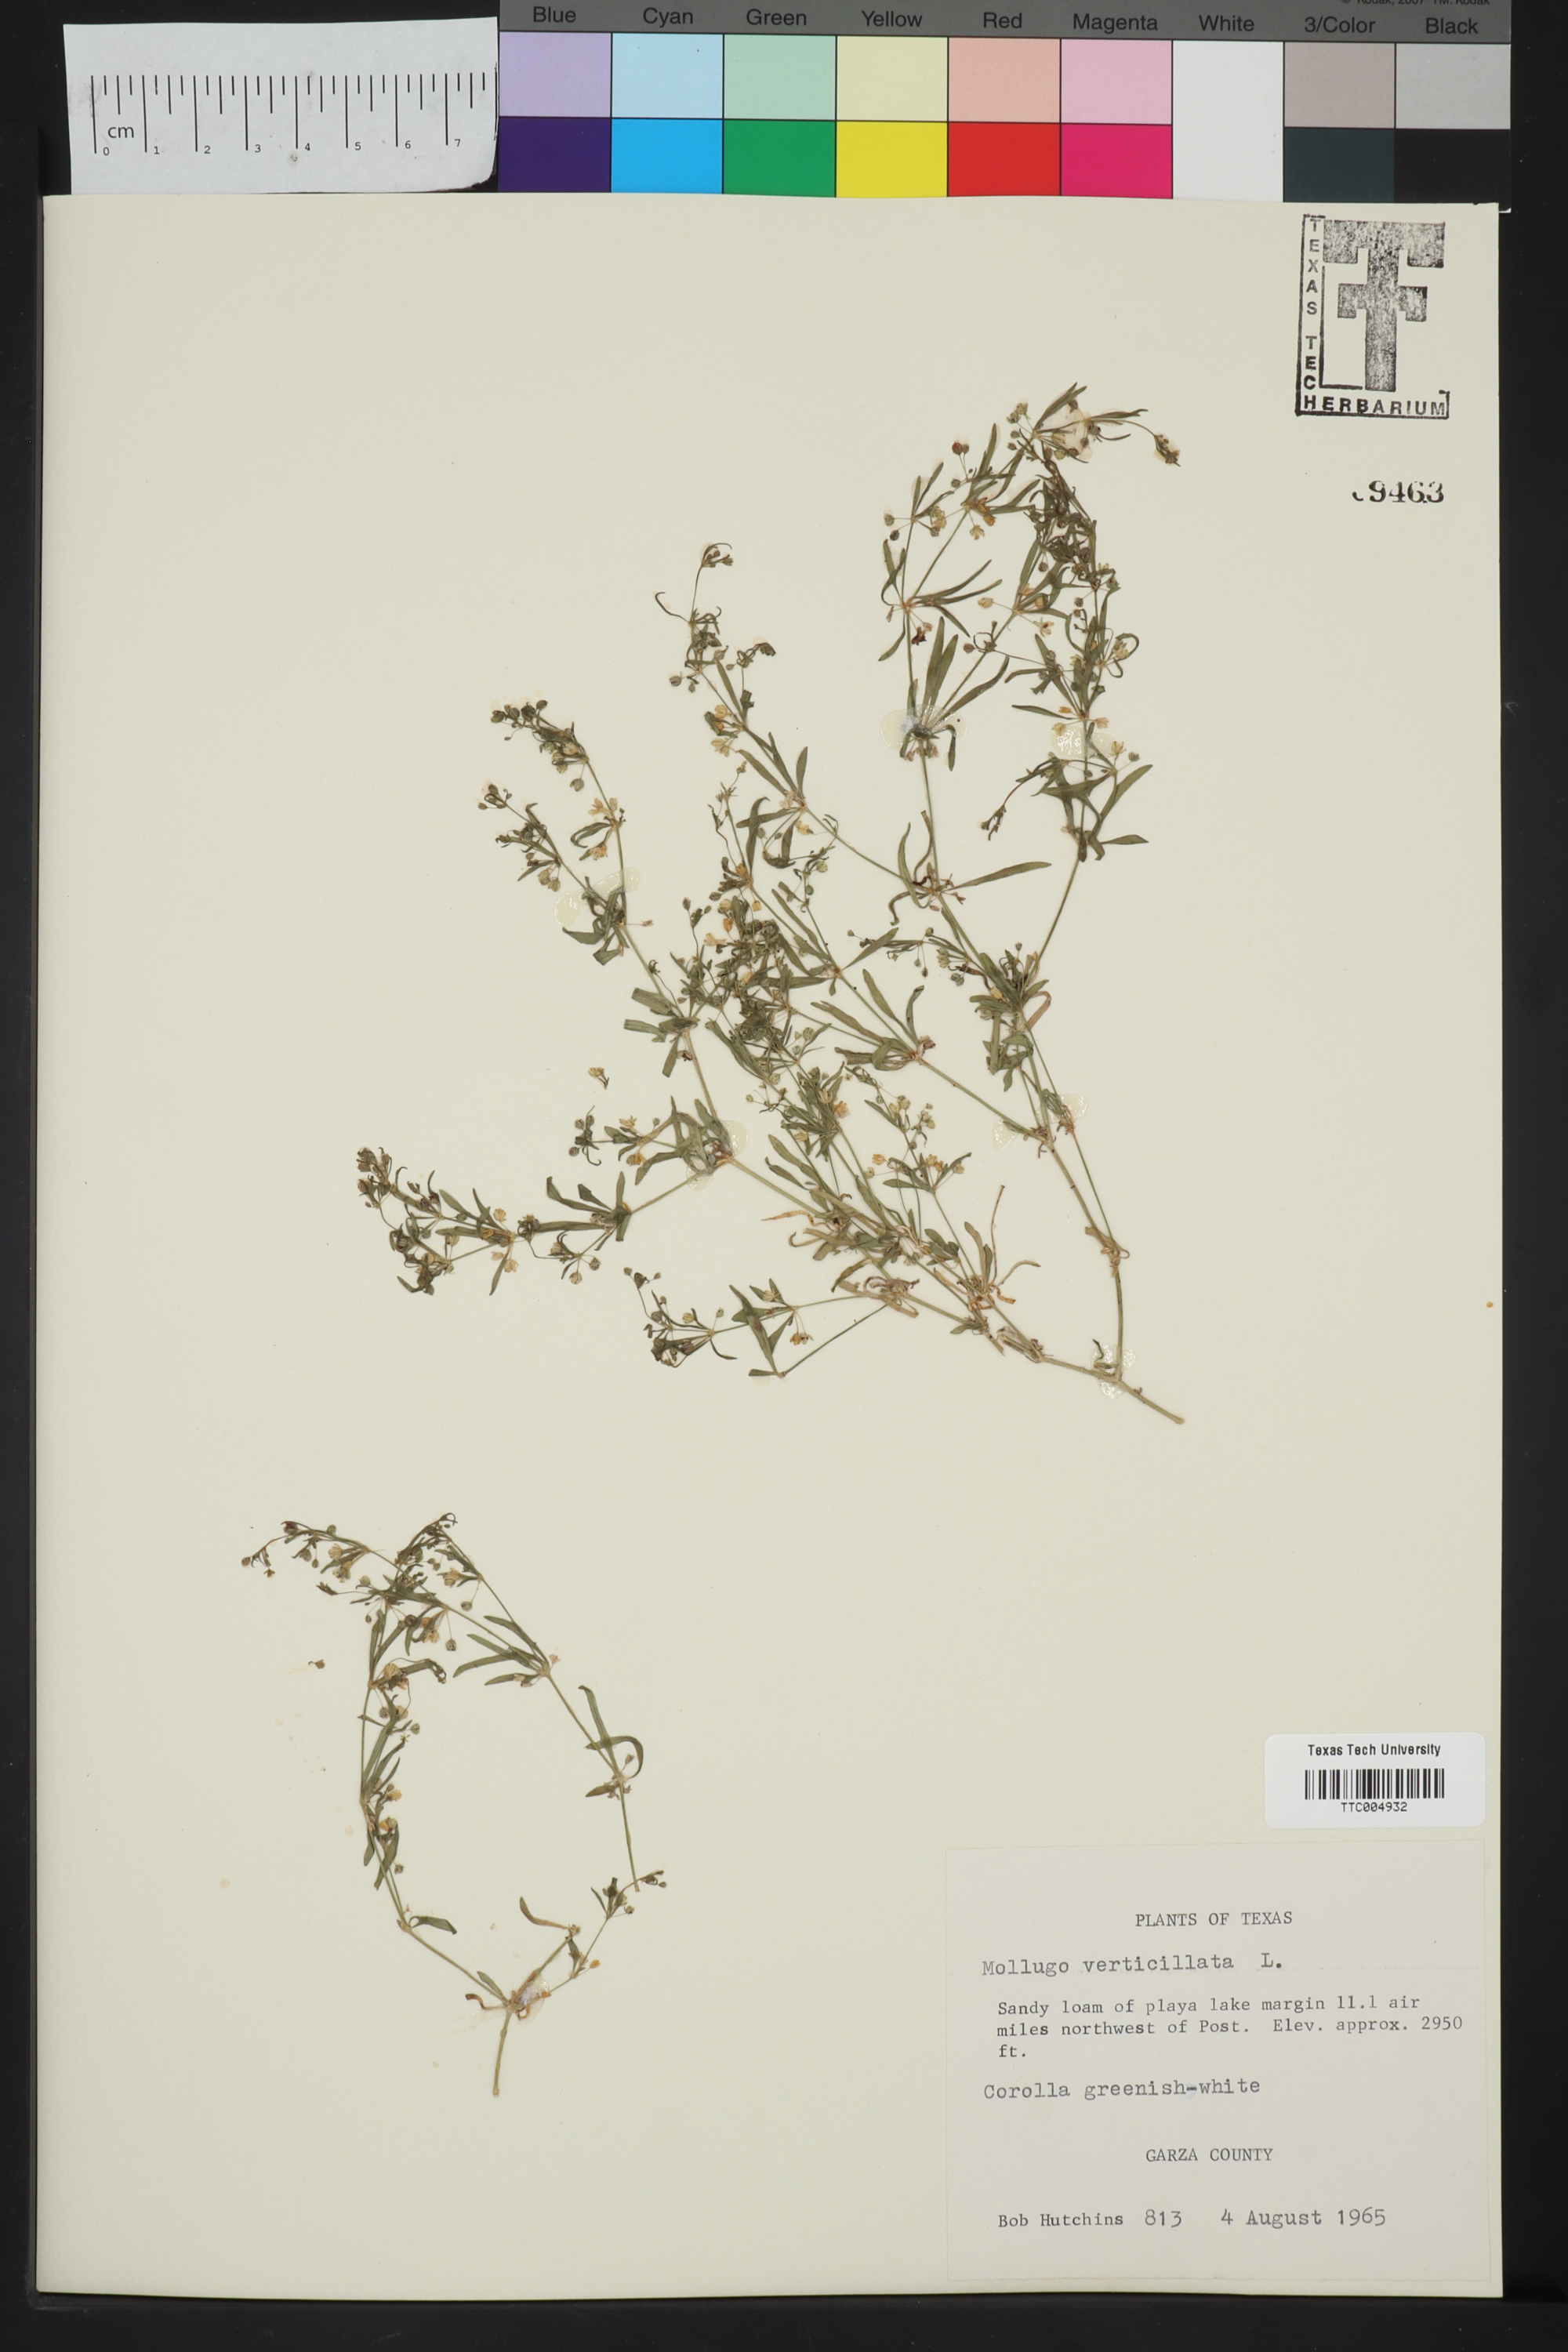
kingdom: Plantae
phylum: Tracheophyta
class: Magnoliopsida
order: Caryophyllales
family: Molluginaceae
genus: Mollugo
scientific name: Mollugo verticillata
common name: Green carpetweed
